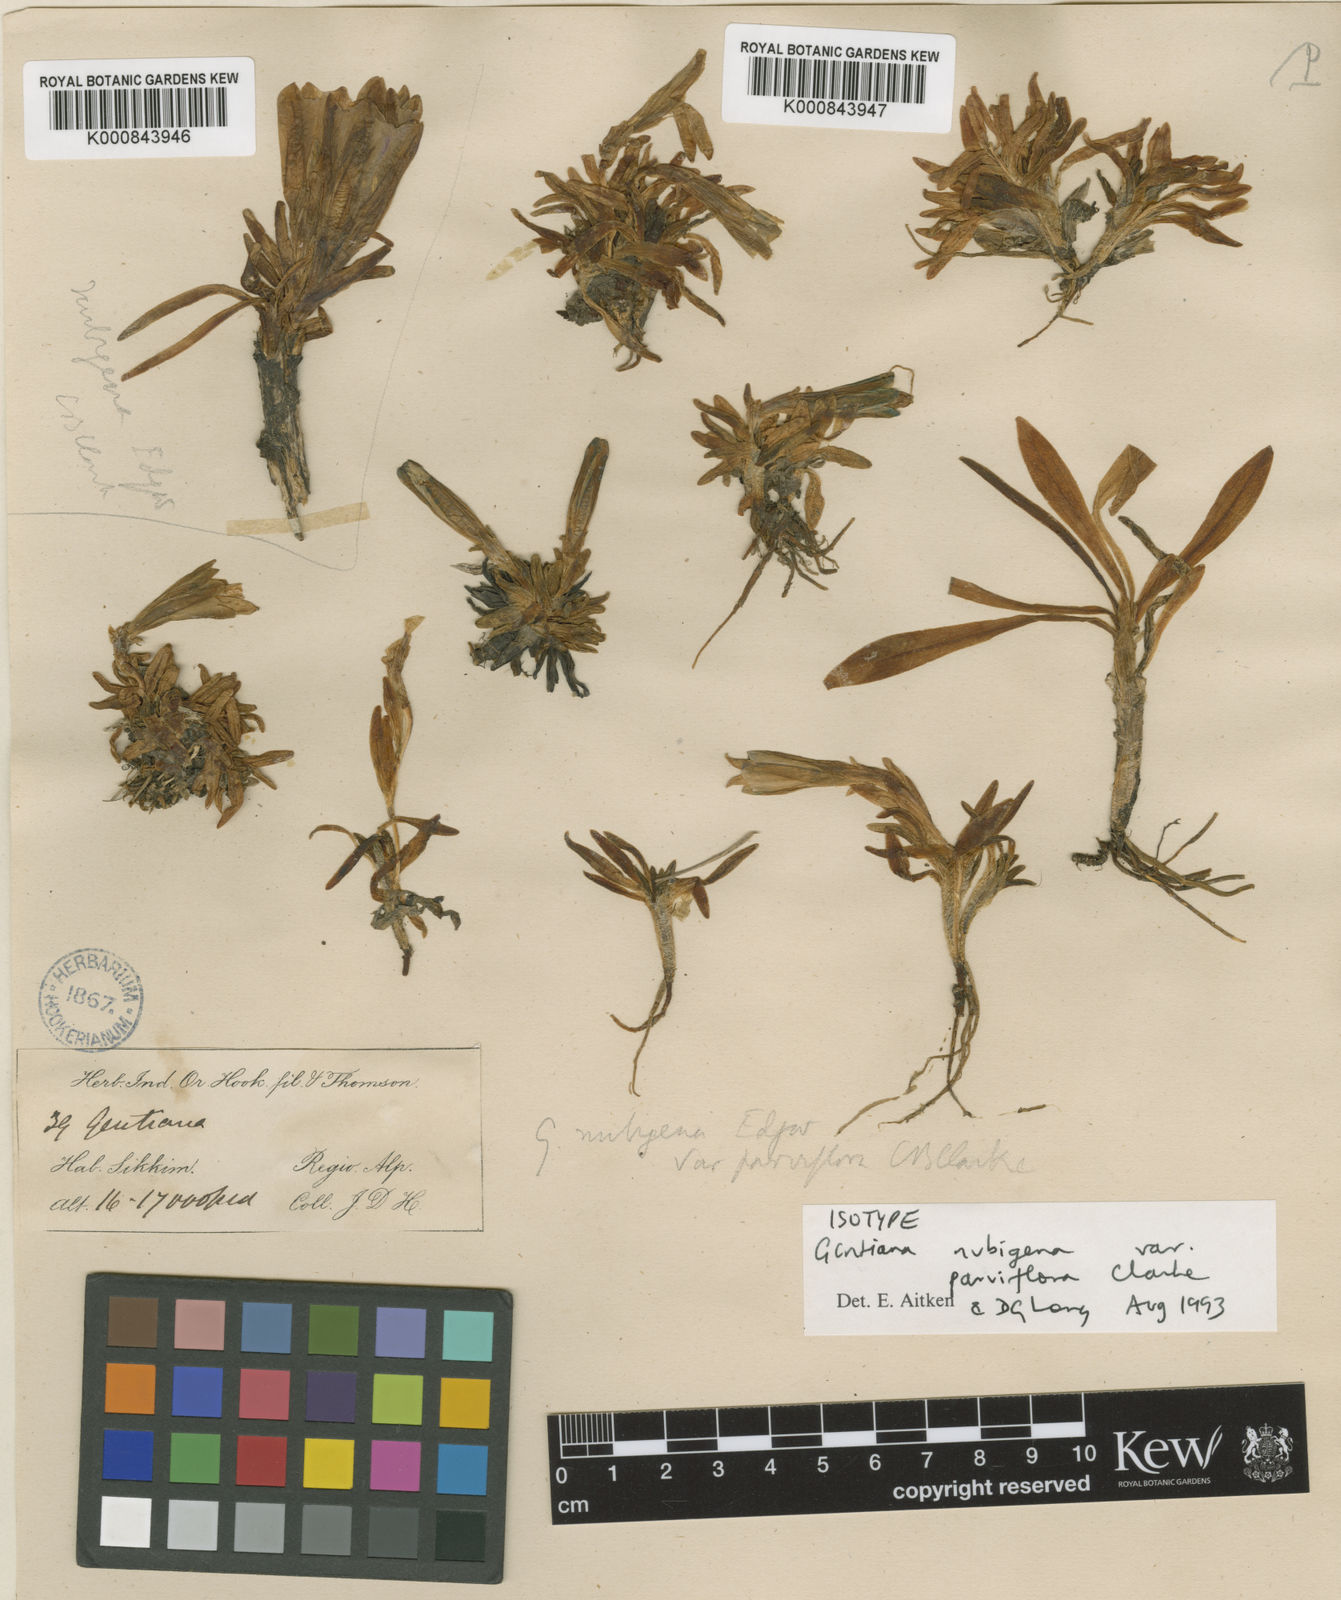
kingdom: Plantae
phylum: Tracheophyta
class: Magnoliopsida
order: Gentianales
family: Gentianaceae
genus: Gentiana
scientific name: Gentiana
